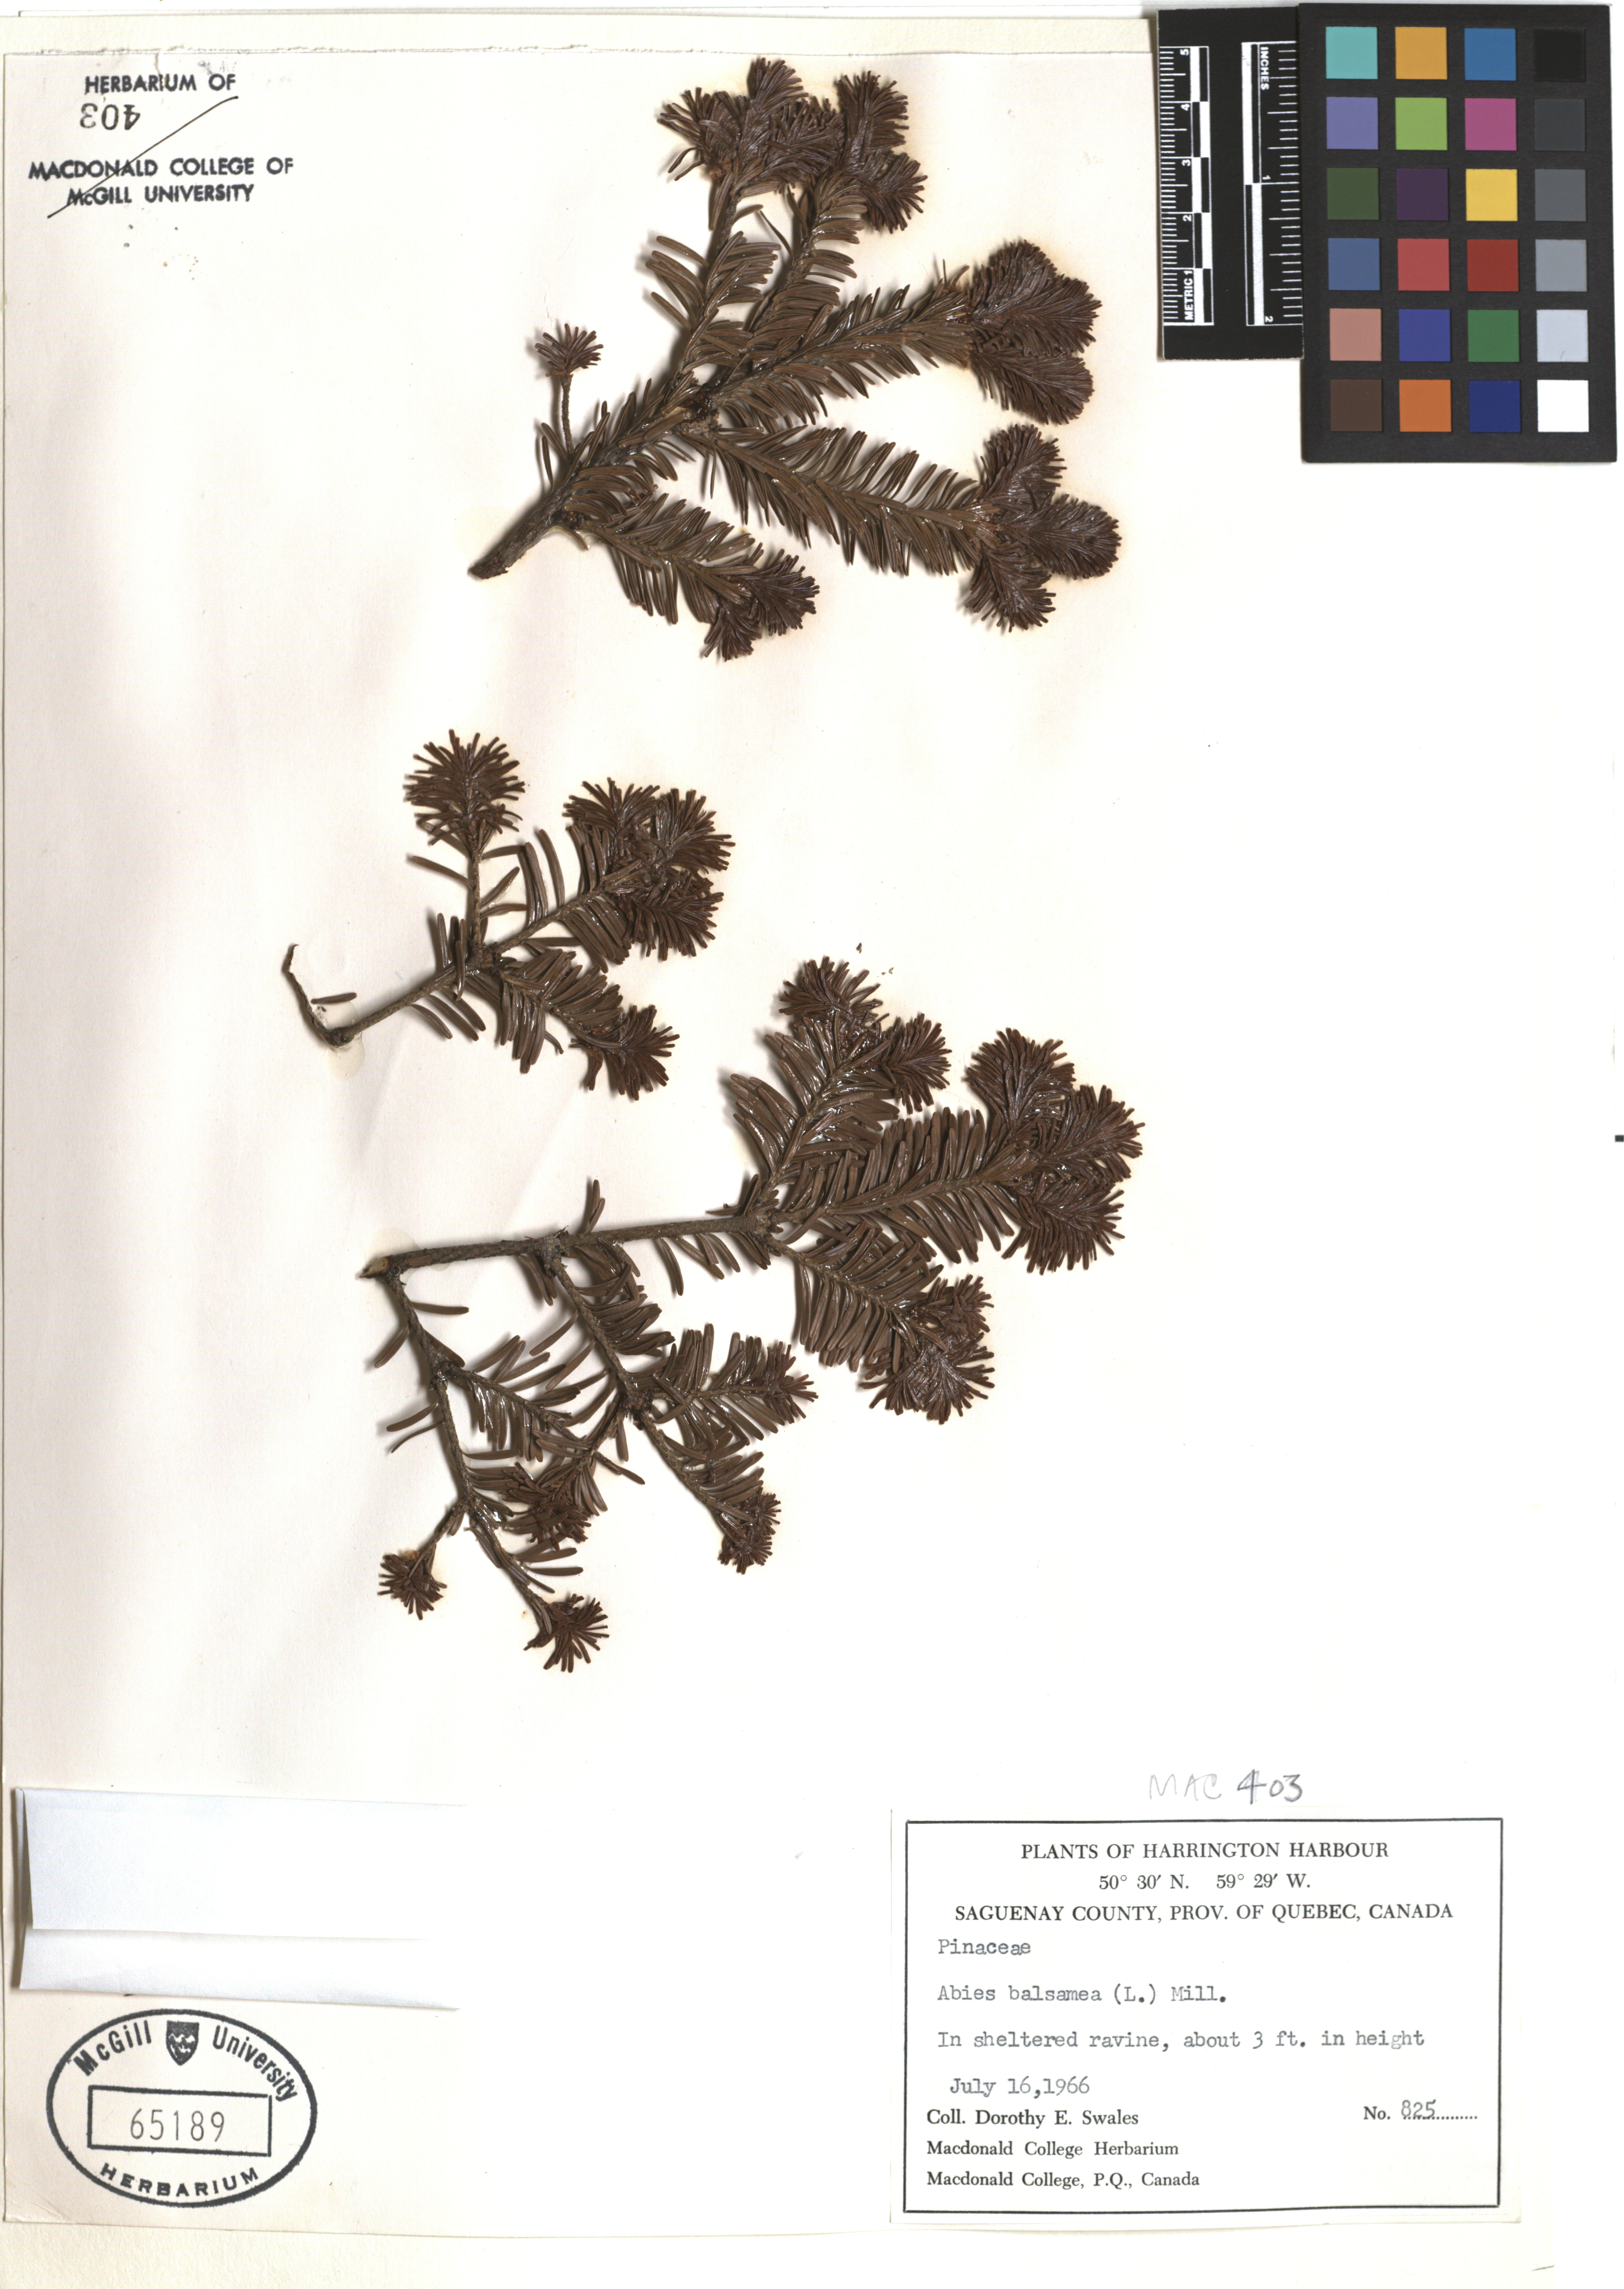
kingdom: Plantae
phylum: Tracheophyta
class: Pinopsida
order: Pinales
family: Pinaceae
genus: Abies
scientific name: Abies balsamea
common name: Balsam fir
